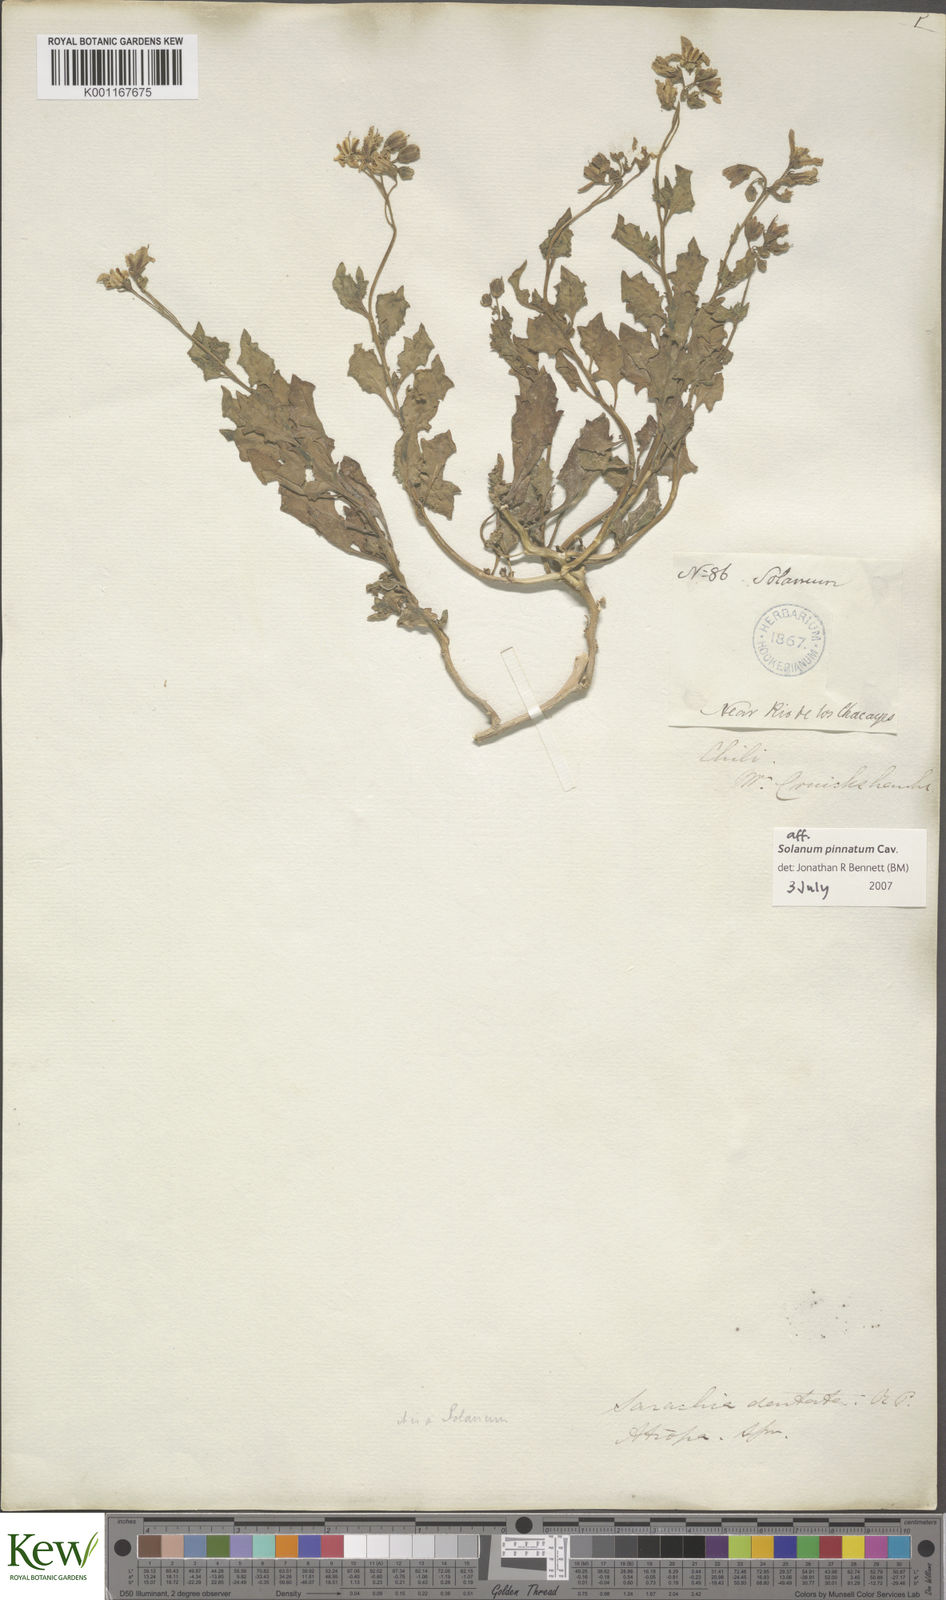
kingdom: Plantae
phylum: Tracheophyta
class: Magnoliopsida
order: Solanales
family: Solanaceae
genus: Solanum
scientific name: Solanum pinnatum
